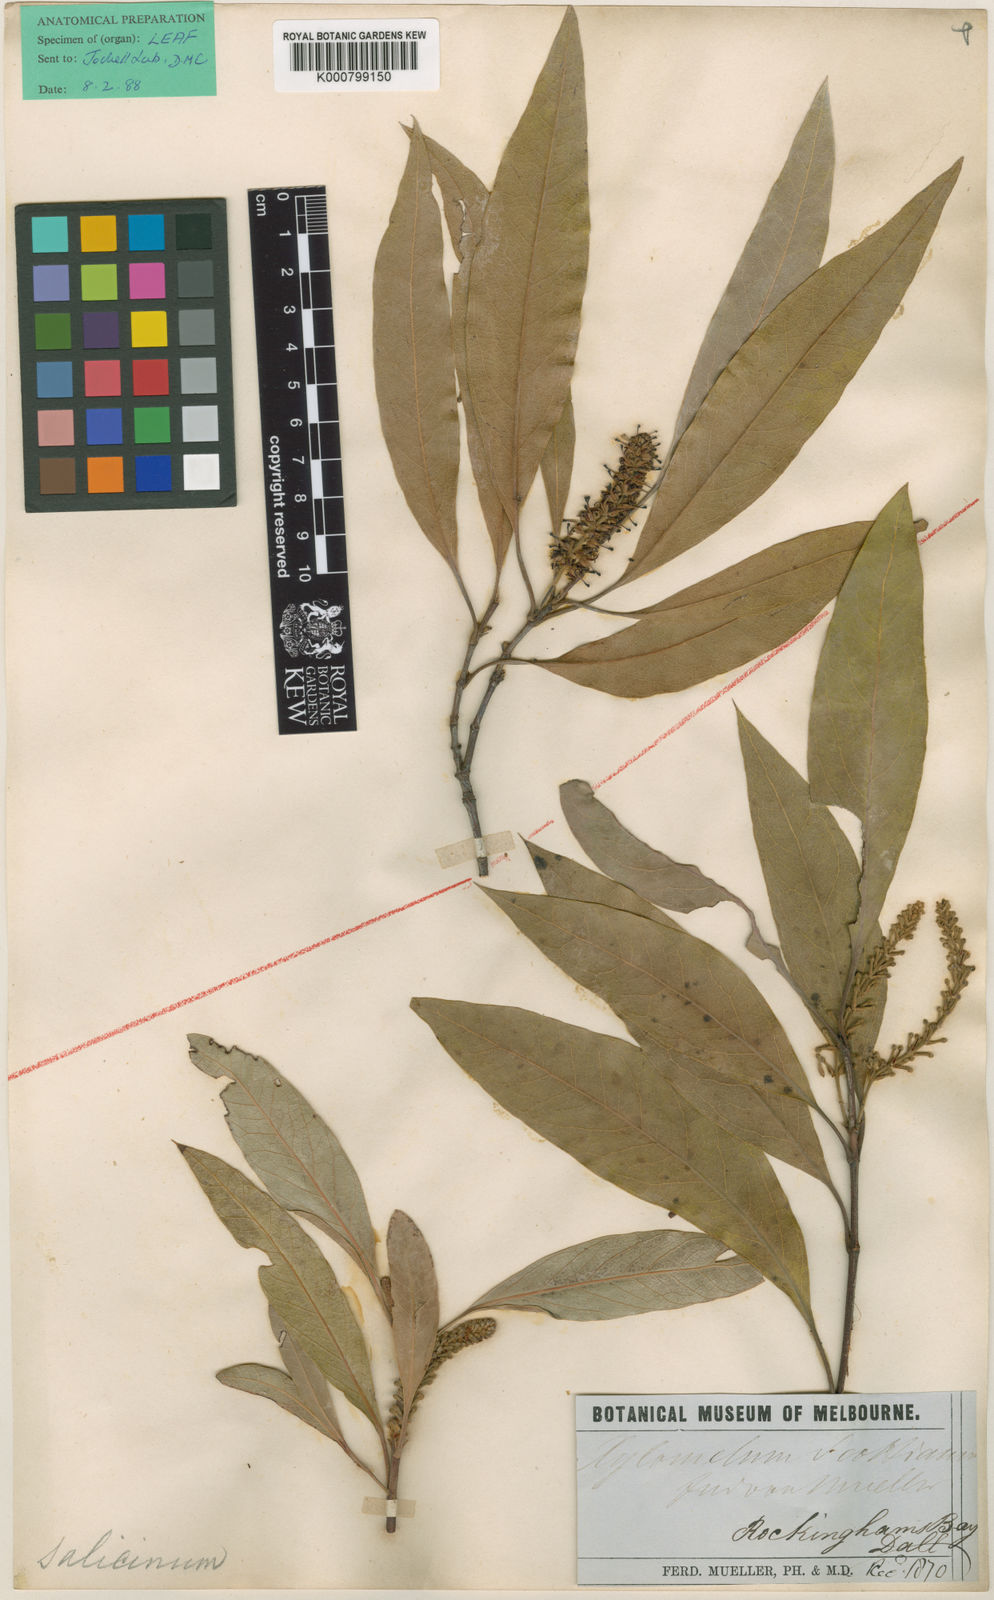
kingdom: Plantae
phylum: Tracheophyta
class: Magnoliopsida
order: Proteales
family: Proteaceae
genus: Xylomelum
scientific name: Xylomelum scottianum
